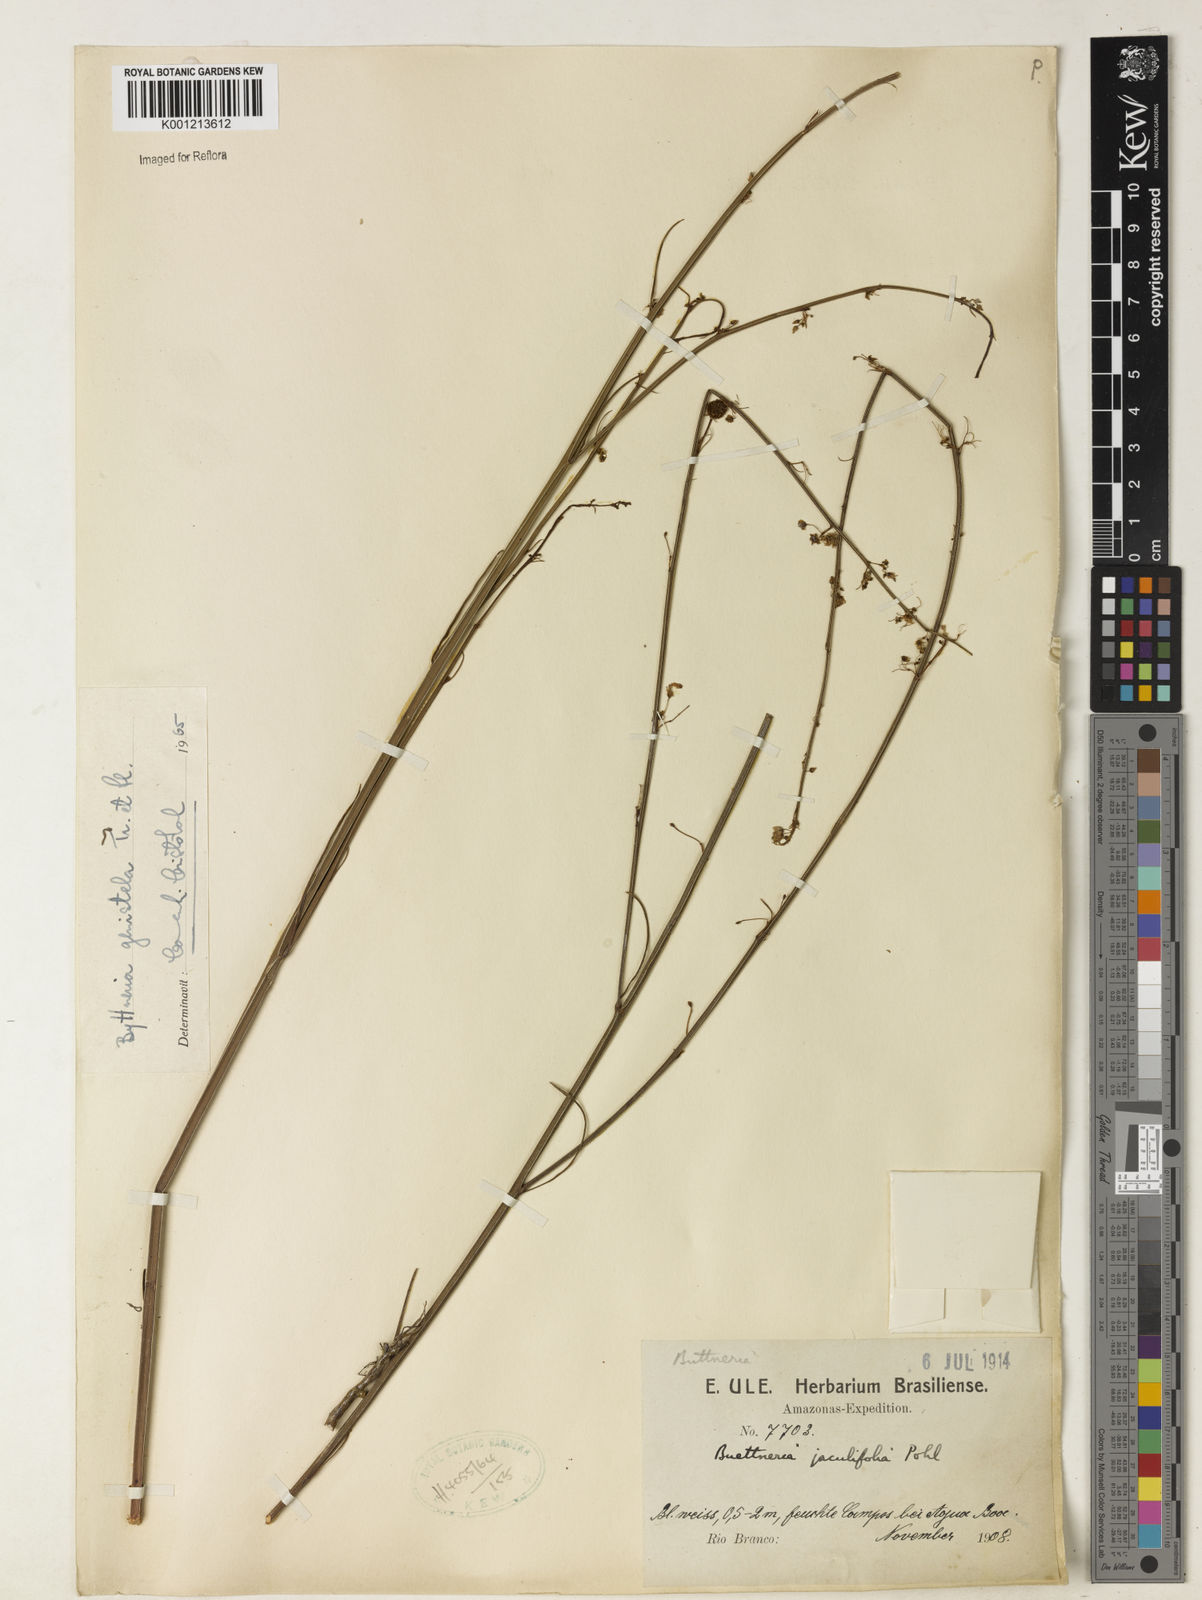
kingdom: Plantae
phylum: Tracheophyta
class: Magnoliopsida
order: Malvales
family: Malvaceae
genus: Byttneria
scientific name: Byttneria jaculifolia
